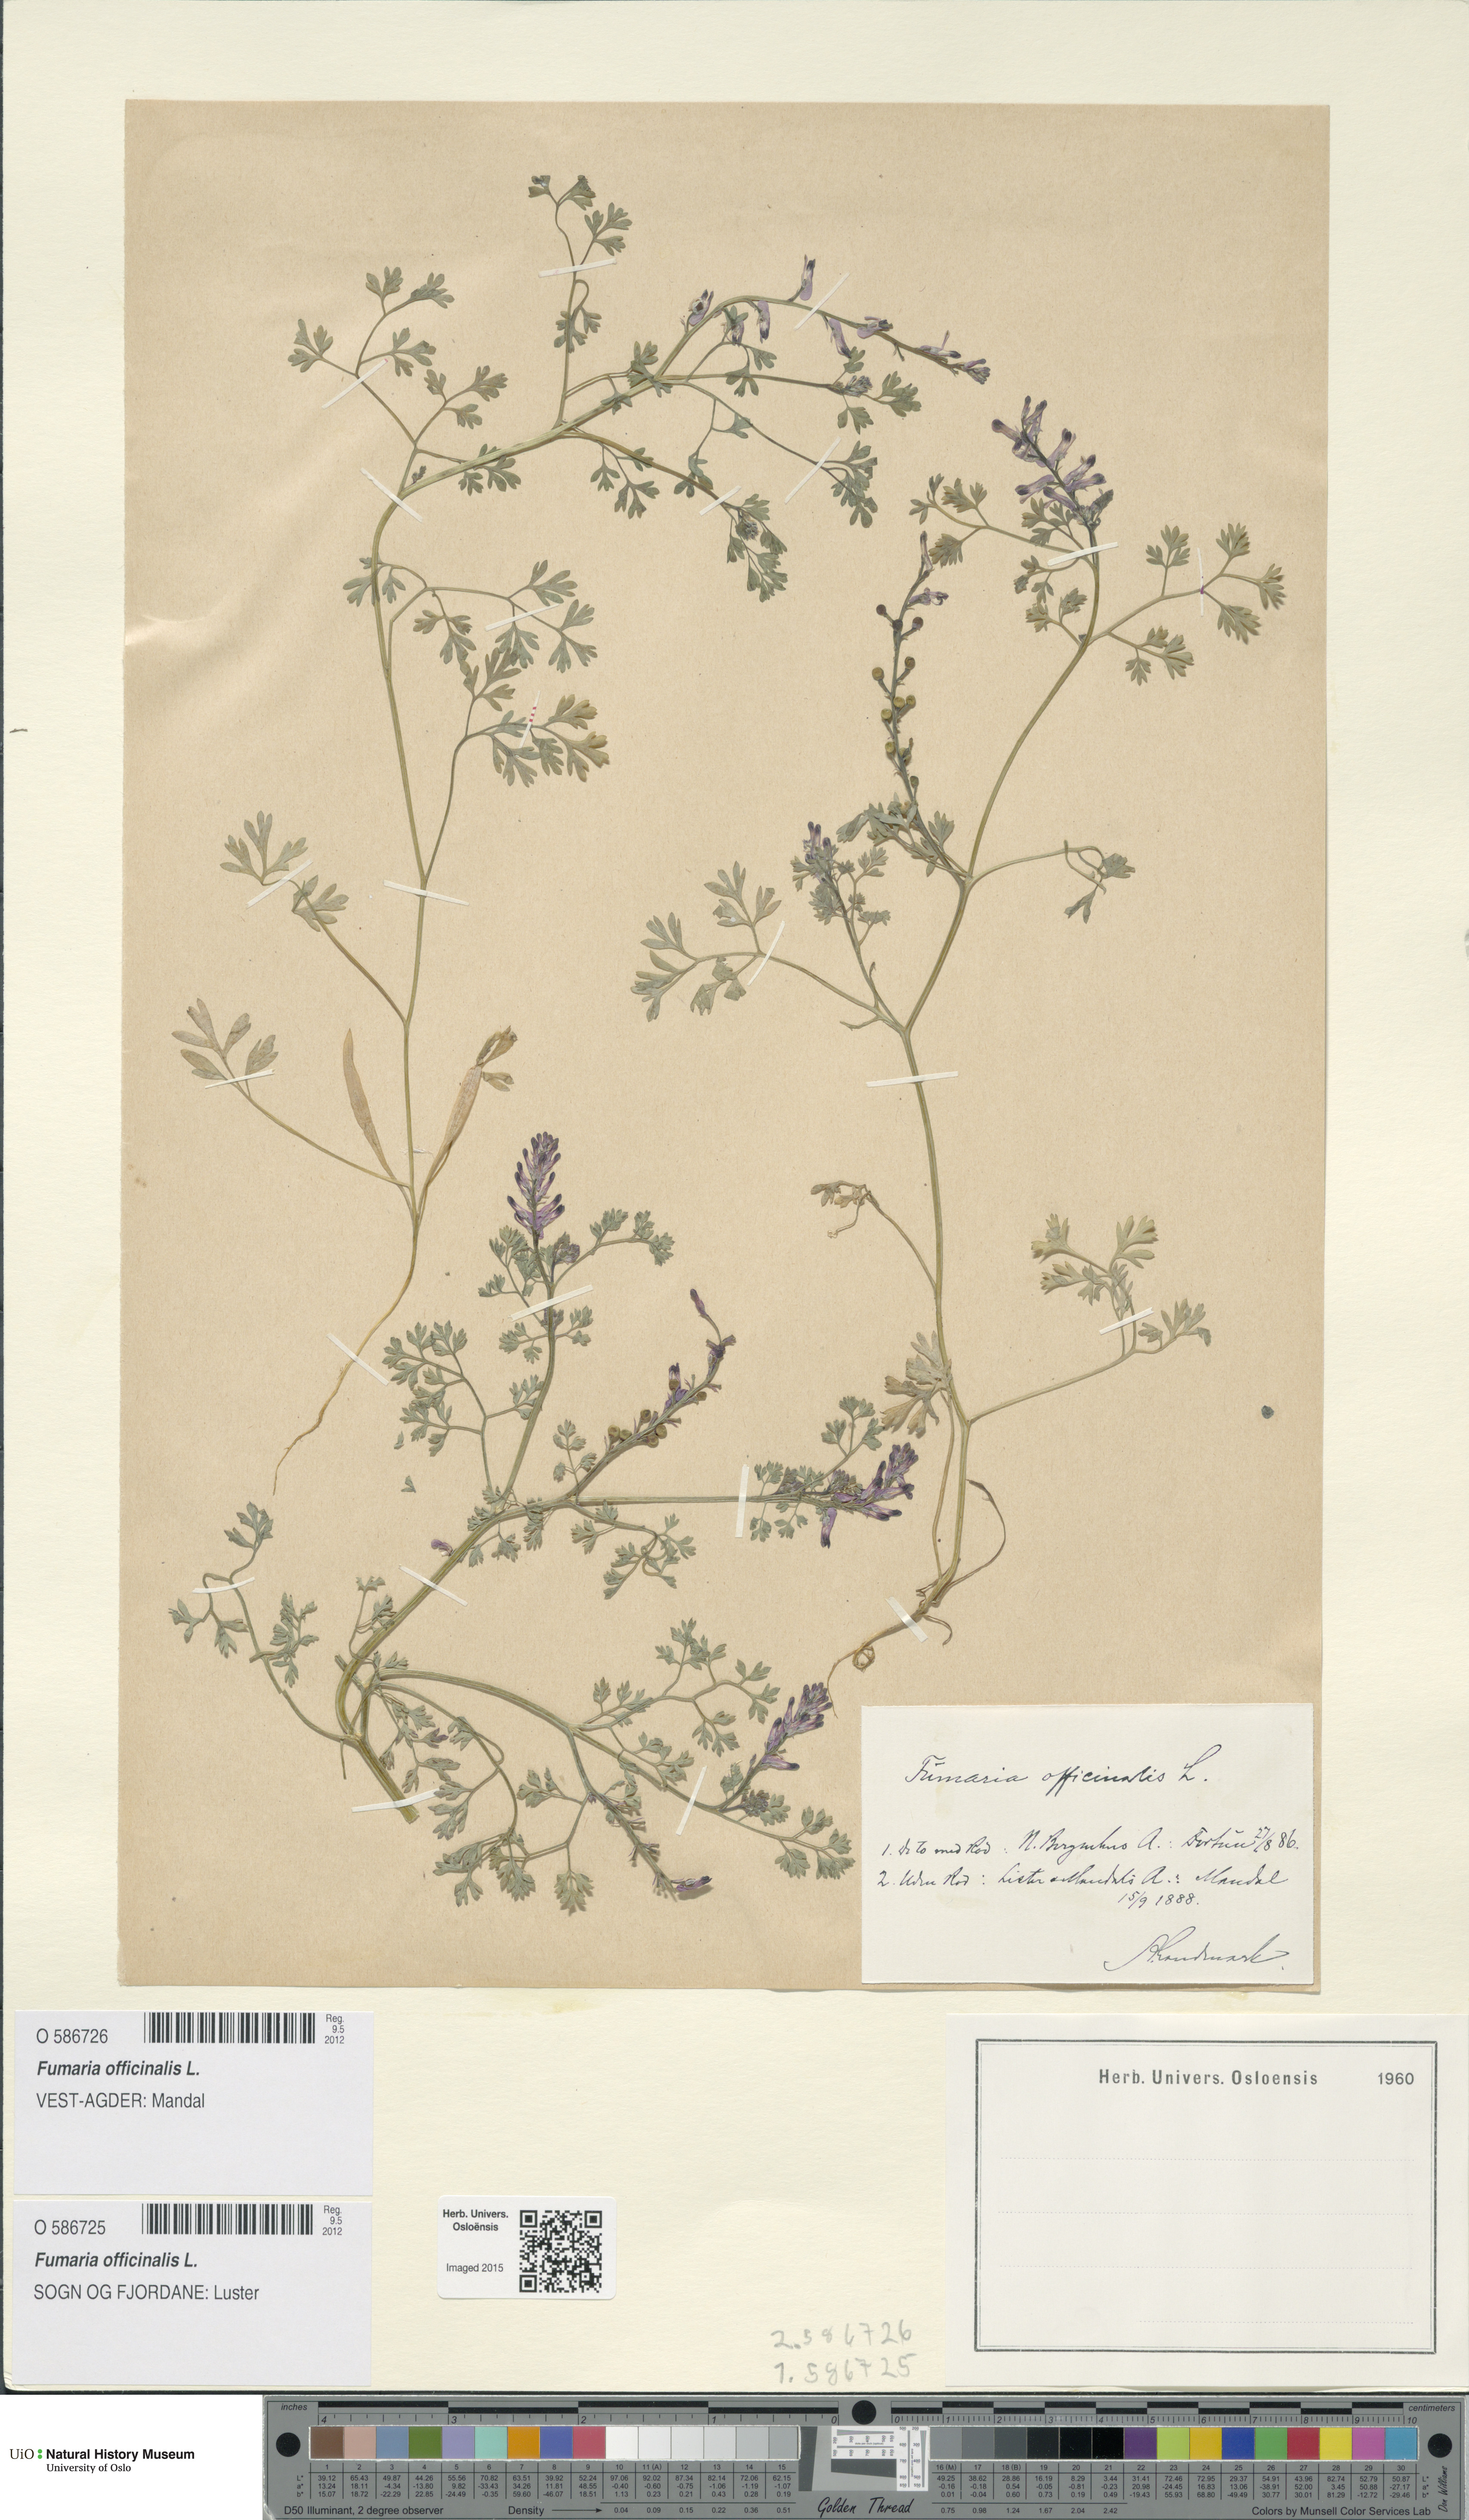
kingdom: Plantae
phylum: Tracheophyta
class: Magnoliopsida
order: Ranunculales
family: Papaveraceae
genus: Fumaria
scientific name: Fumaria officinalis
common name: Common fumitory
